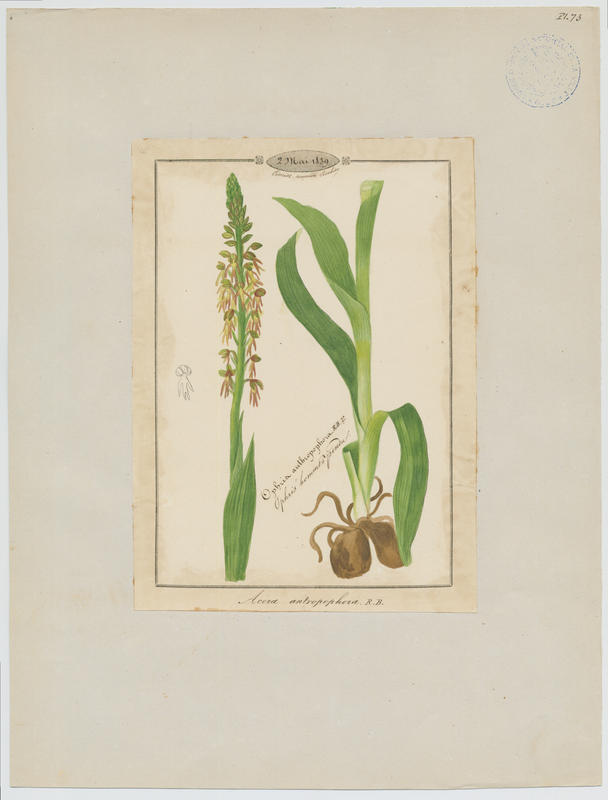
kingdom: Plantae
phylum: Tracheophyta
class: Liliopsida
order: Asparagales
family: Orchidaceae
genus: Orchis
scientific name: Orchis anthropophora
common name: Man orchid
